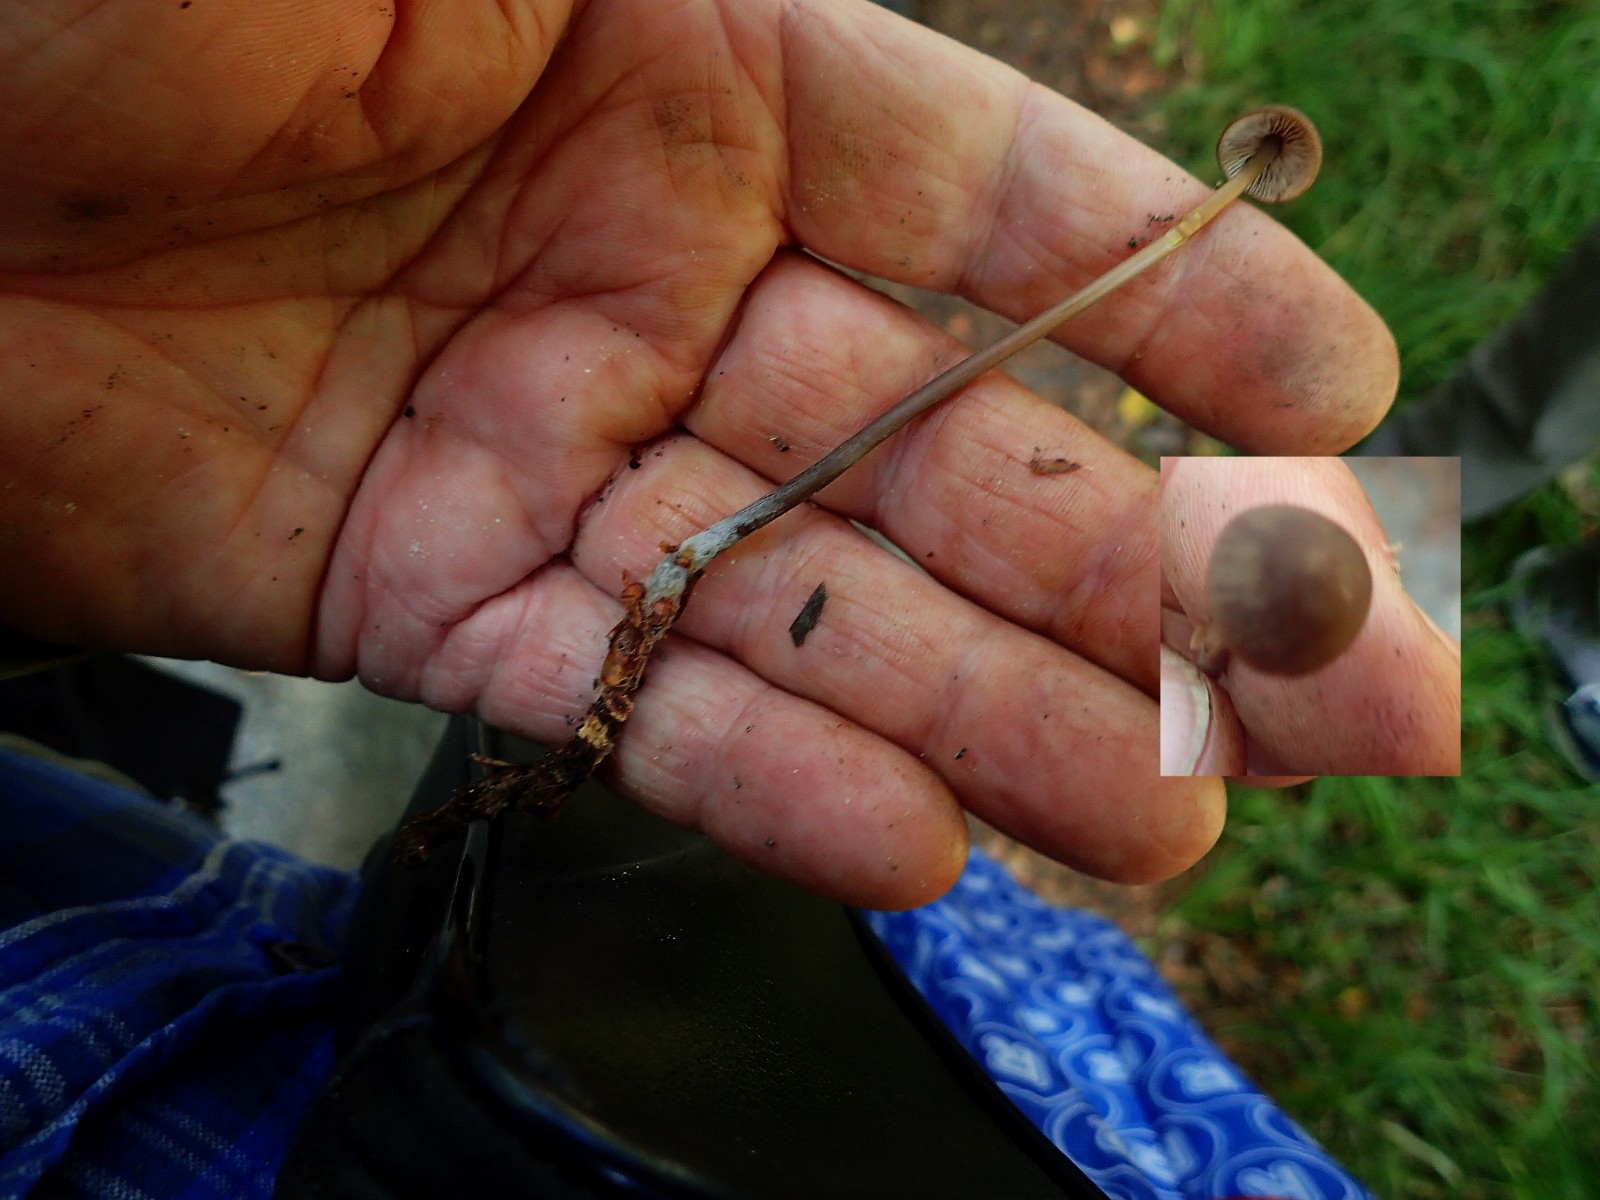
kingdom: Fungi
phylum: Basidiomycota
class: Agaricomycetes
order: Agaricales
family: Omphalotaceae
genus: Mycetinis
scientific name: Mycetinis alliaceus
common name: stor løghat
